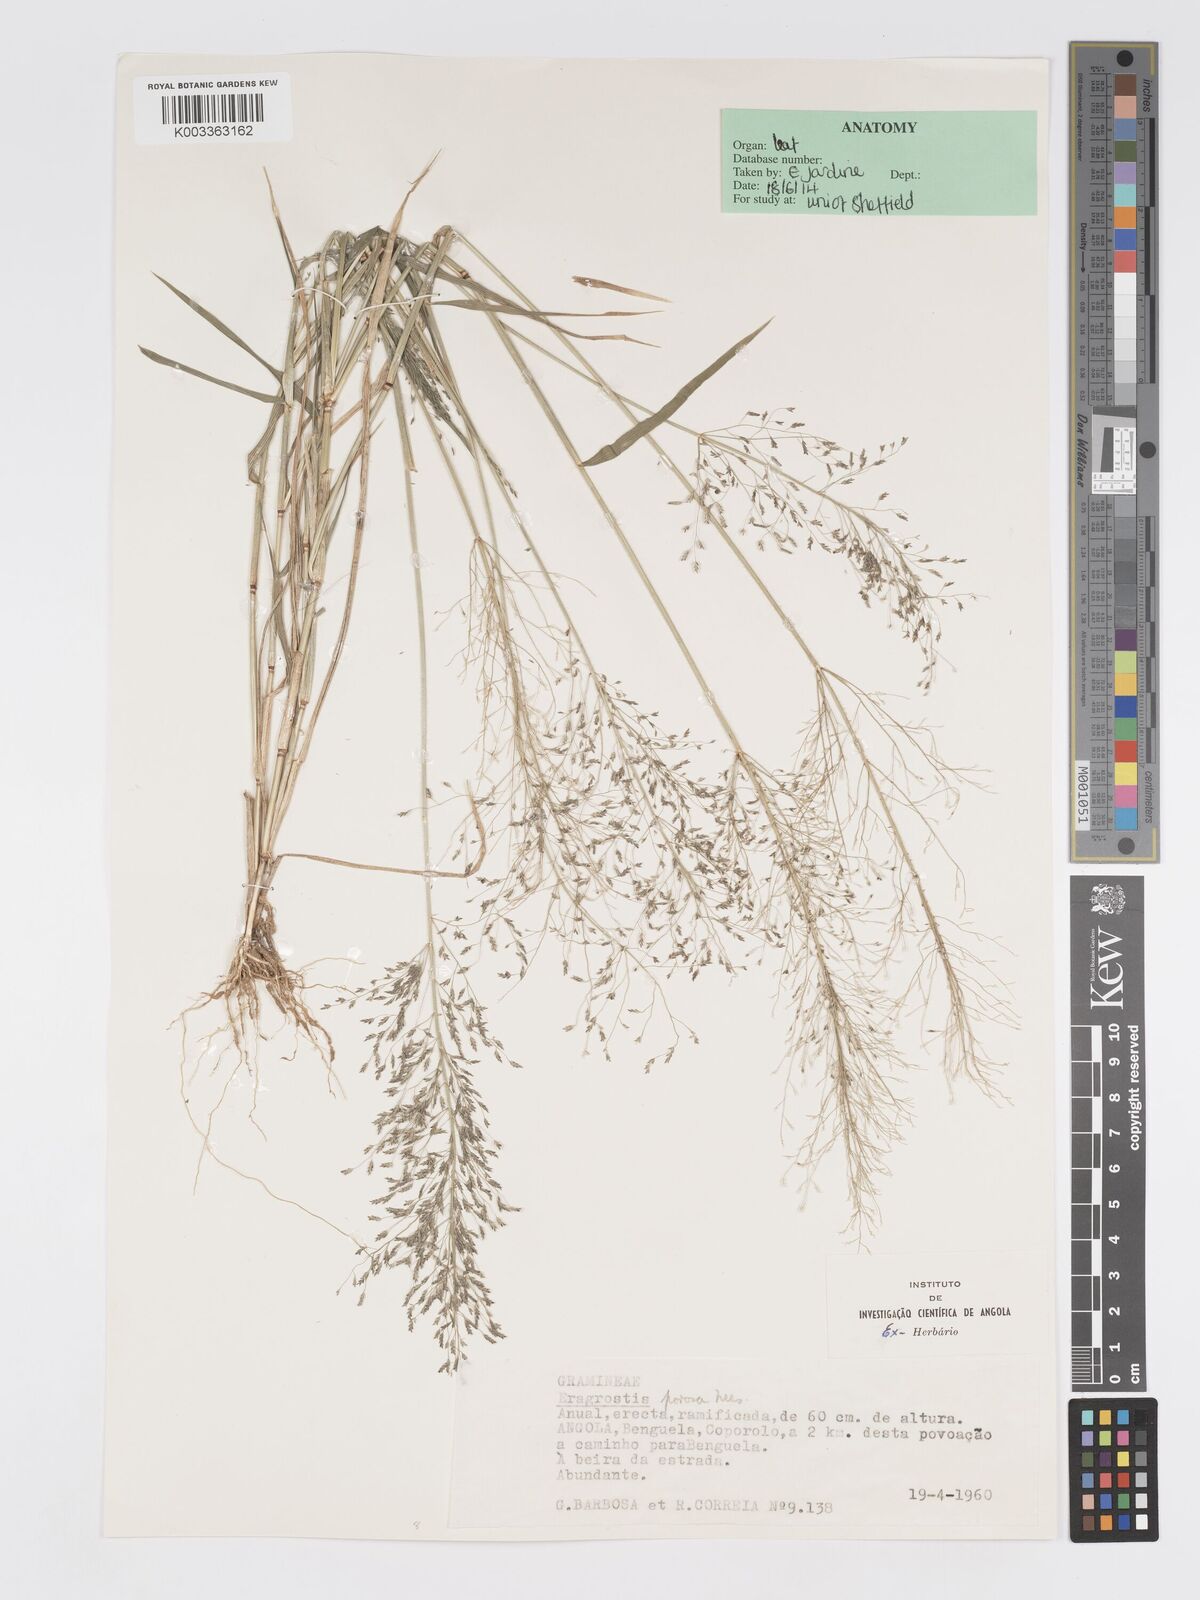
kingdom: Plantae
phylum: Tracheophyta
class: Liliopsida
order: Poales
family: Poaceae
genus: Eragrostis
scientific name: Eragrostis cylindriflora
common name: Cylinderflower lovegrass
